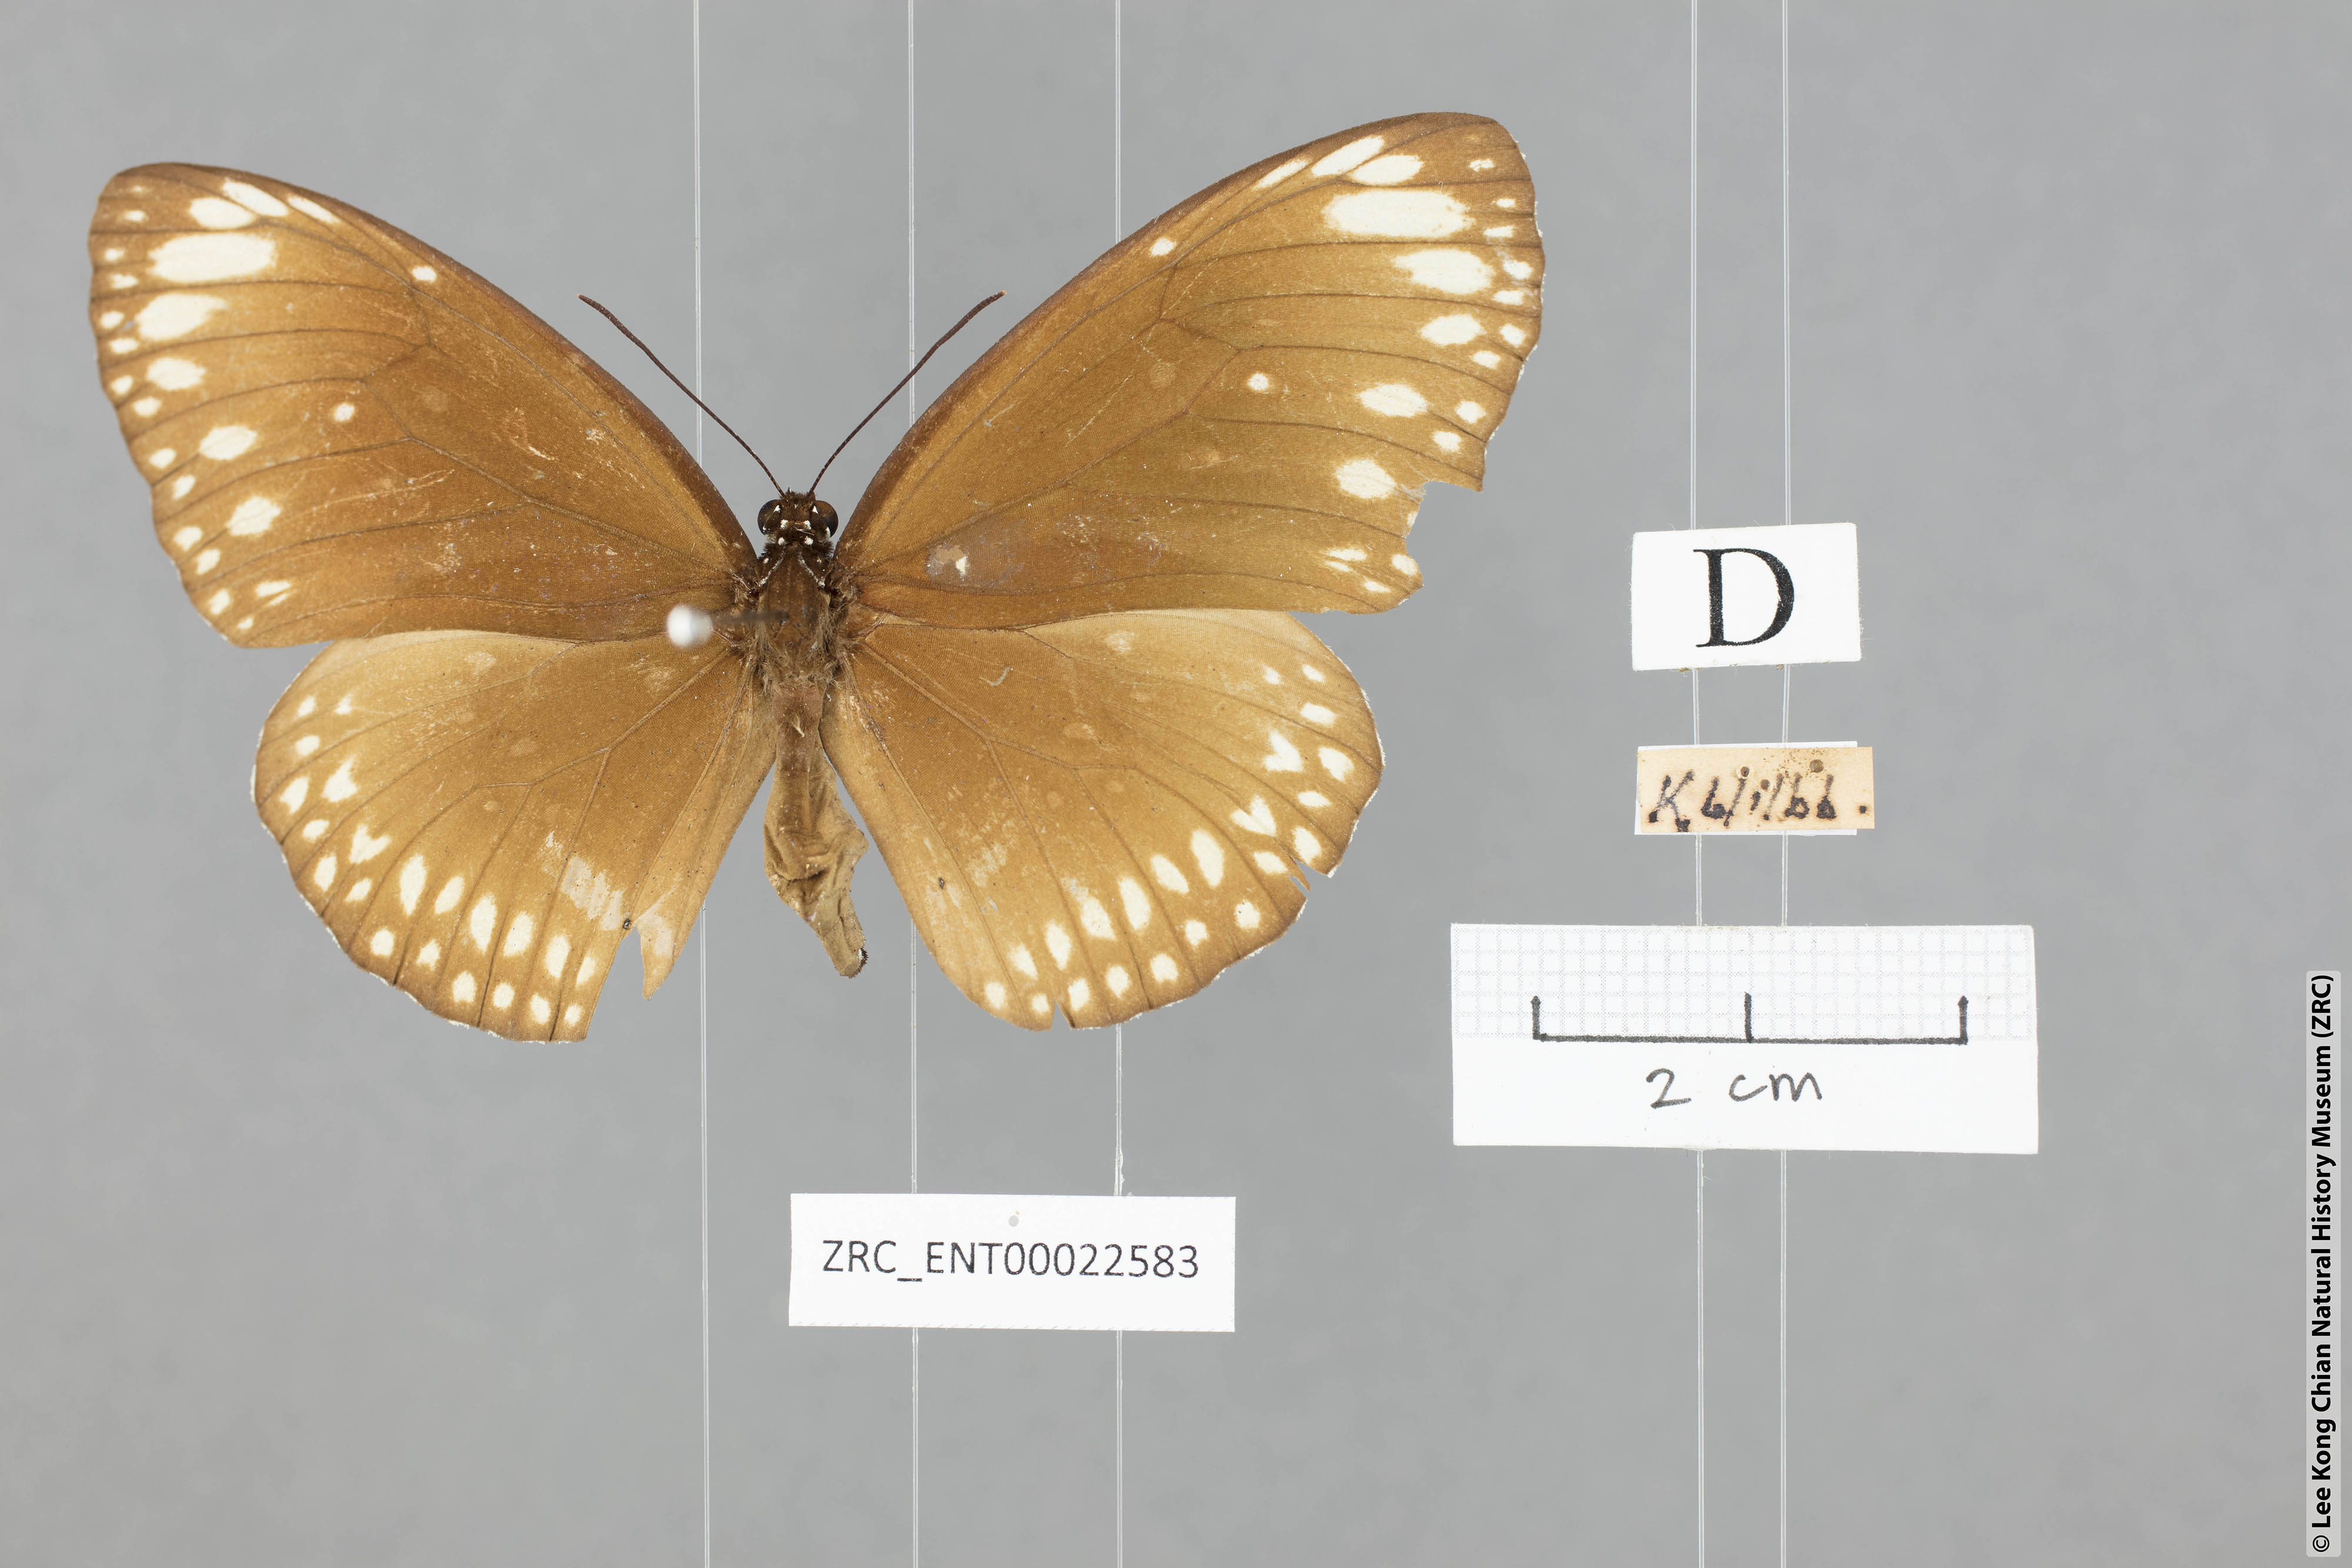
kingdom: Animalia
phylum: Arthropoda
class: Insecta
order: Lepidoptera
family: Nymphalidae
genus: Euploea
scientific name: Euploea core
